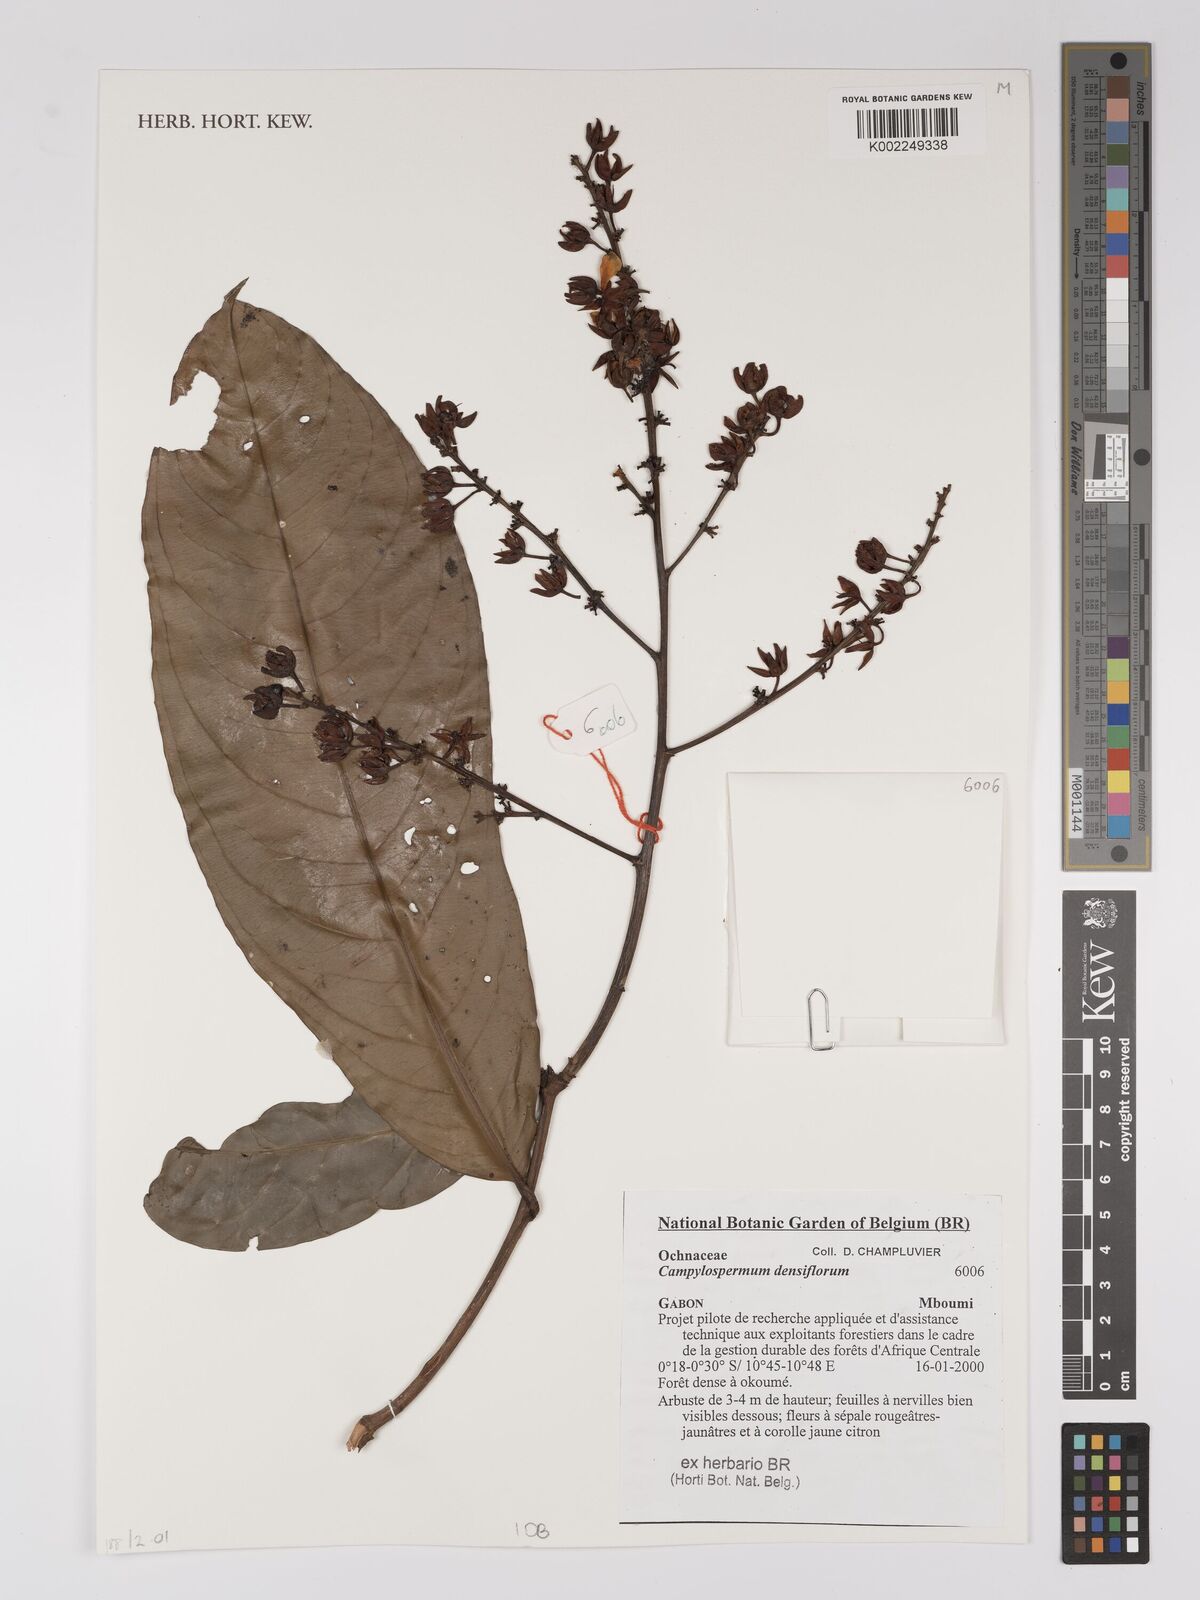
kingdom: Plantae
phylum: Tracheophyta
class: Magnoliopsida
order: Malpighiales
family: Ochnaceae
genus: Gomphia
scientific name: Gomphia densiflora
